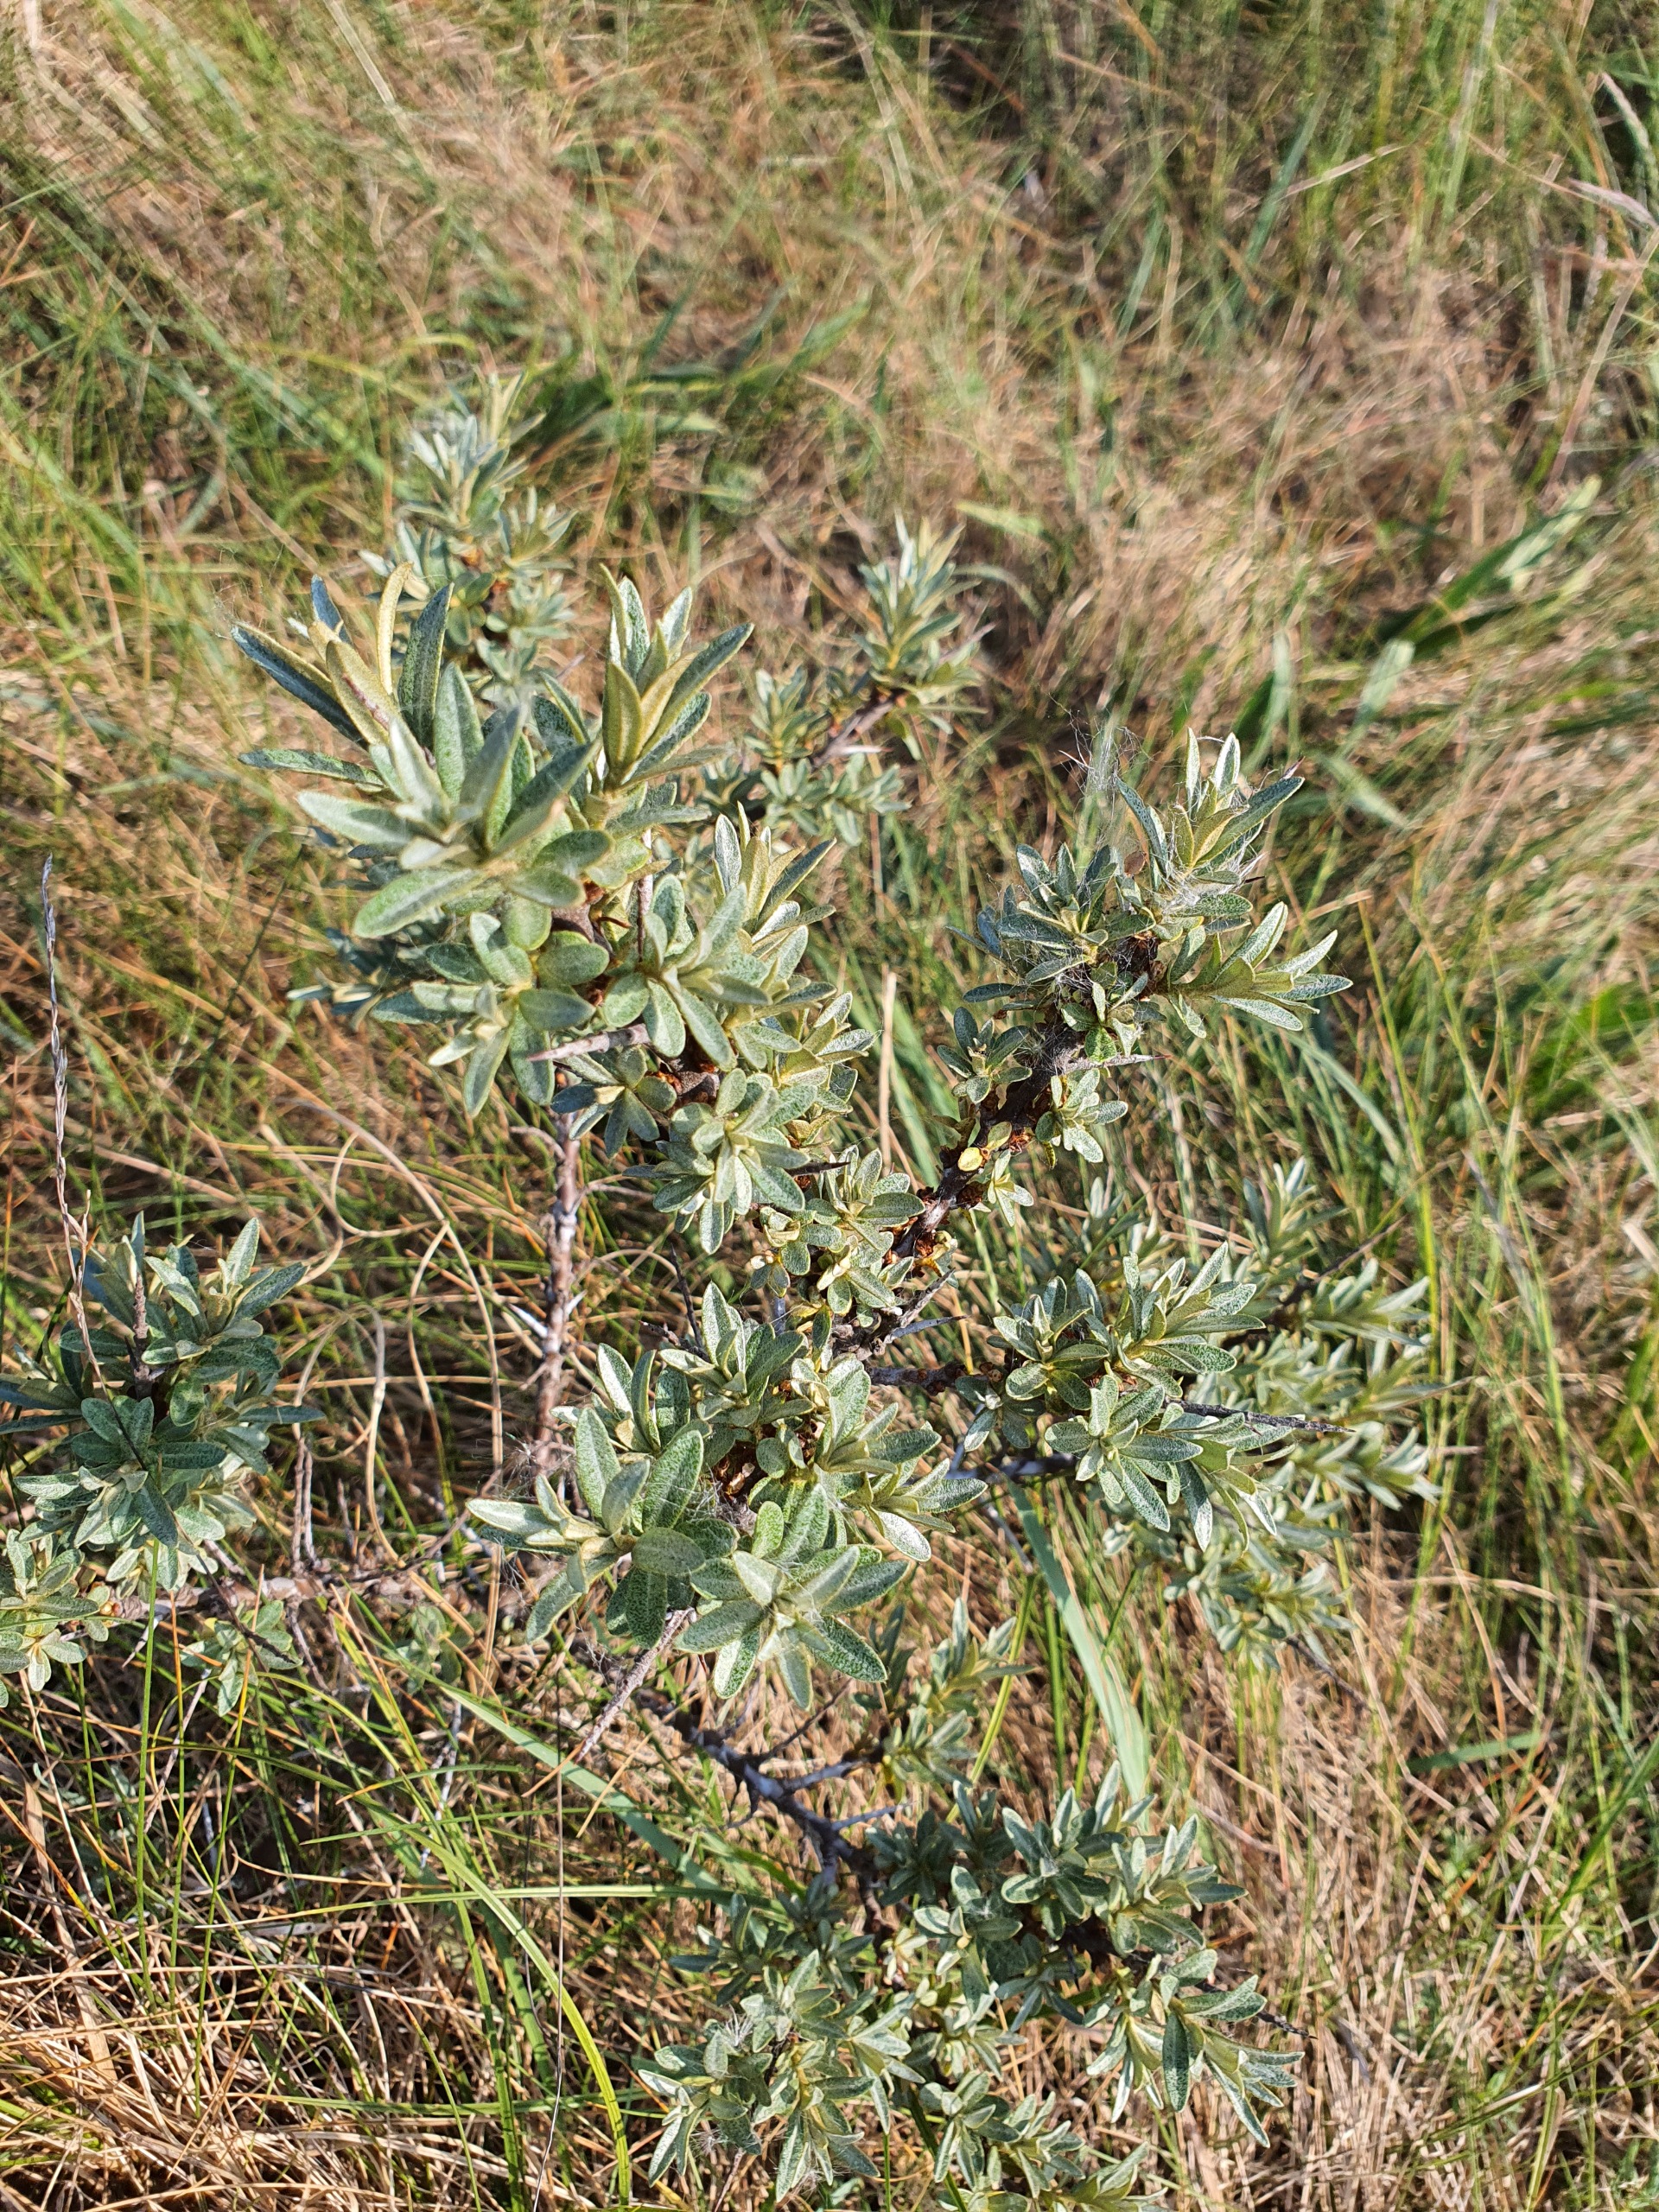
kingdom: Plantae
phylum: Tracheophyta
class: Magnoliopsida
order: Rosales
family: Elaeagnaceae
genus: Hippophae
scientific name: Hippophae rhamnoides
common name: Havtorn
